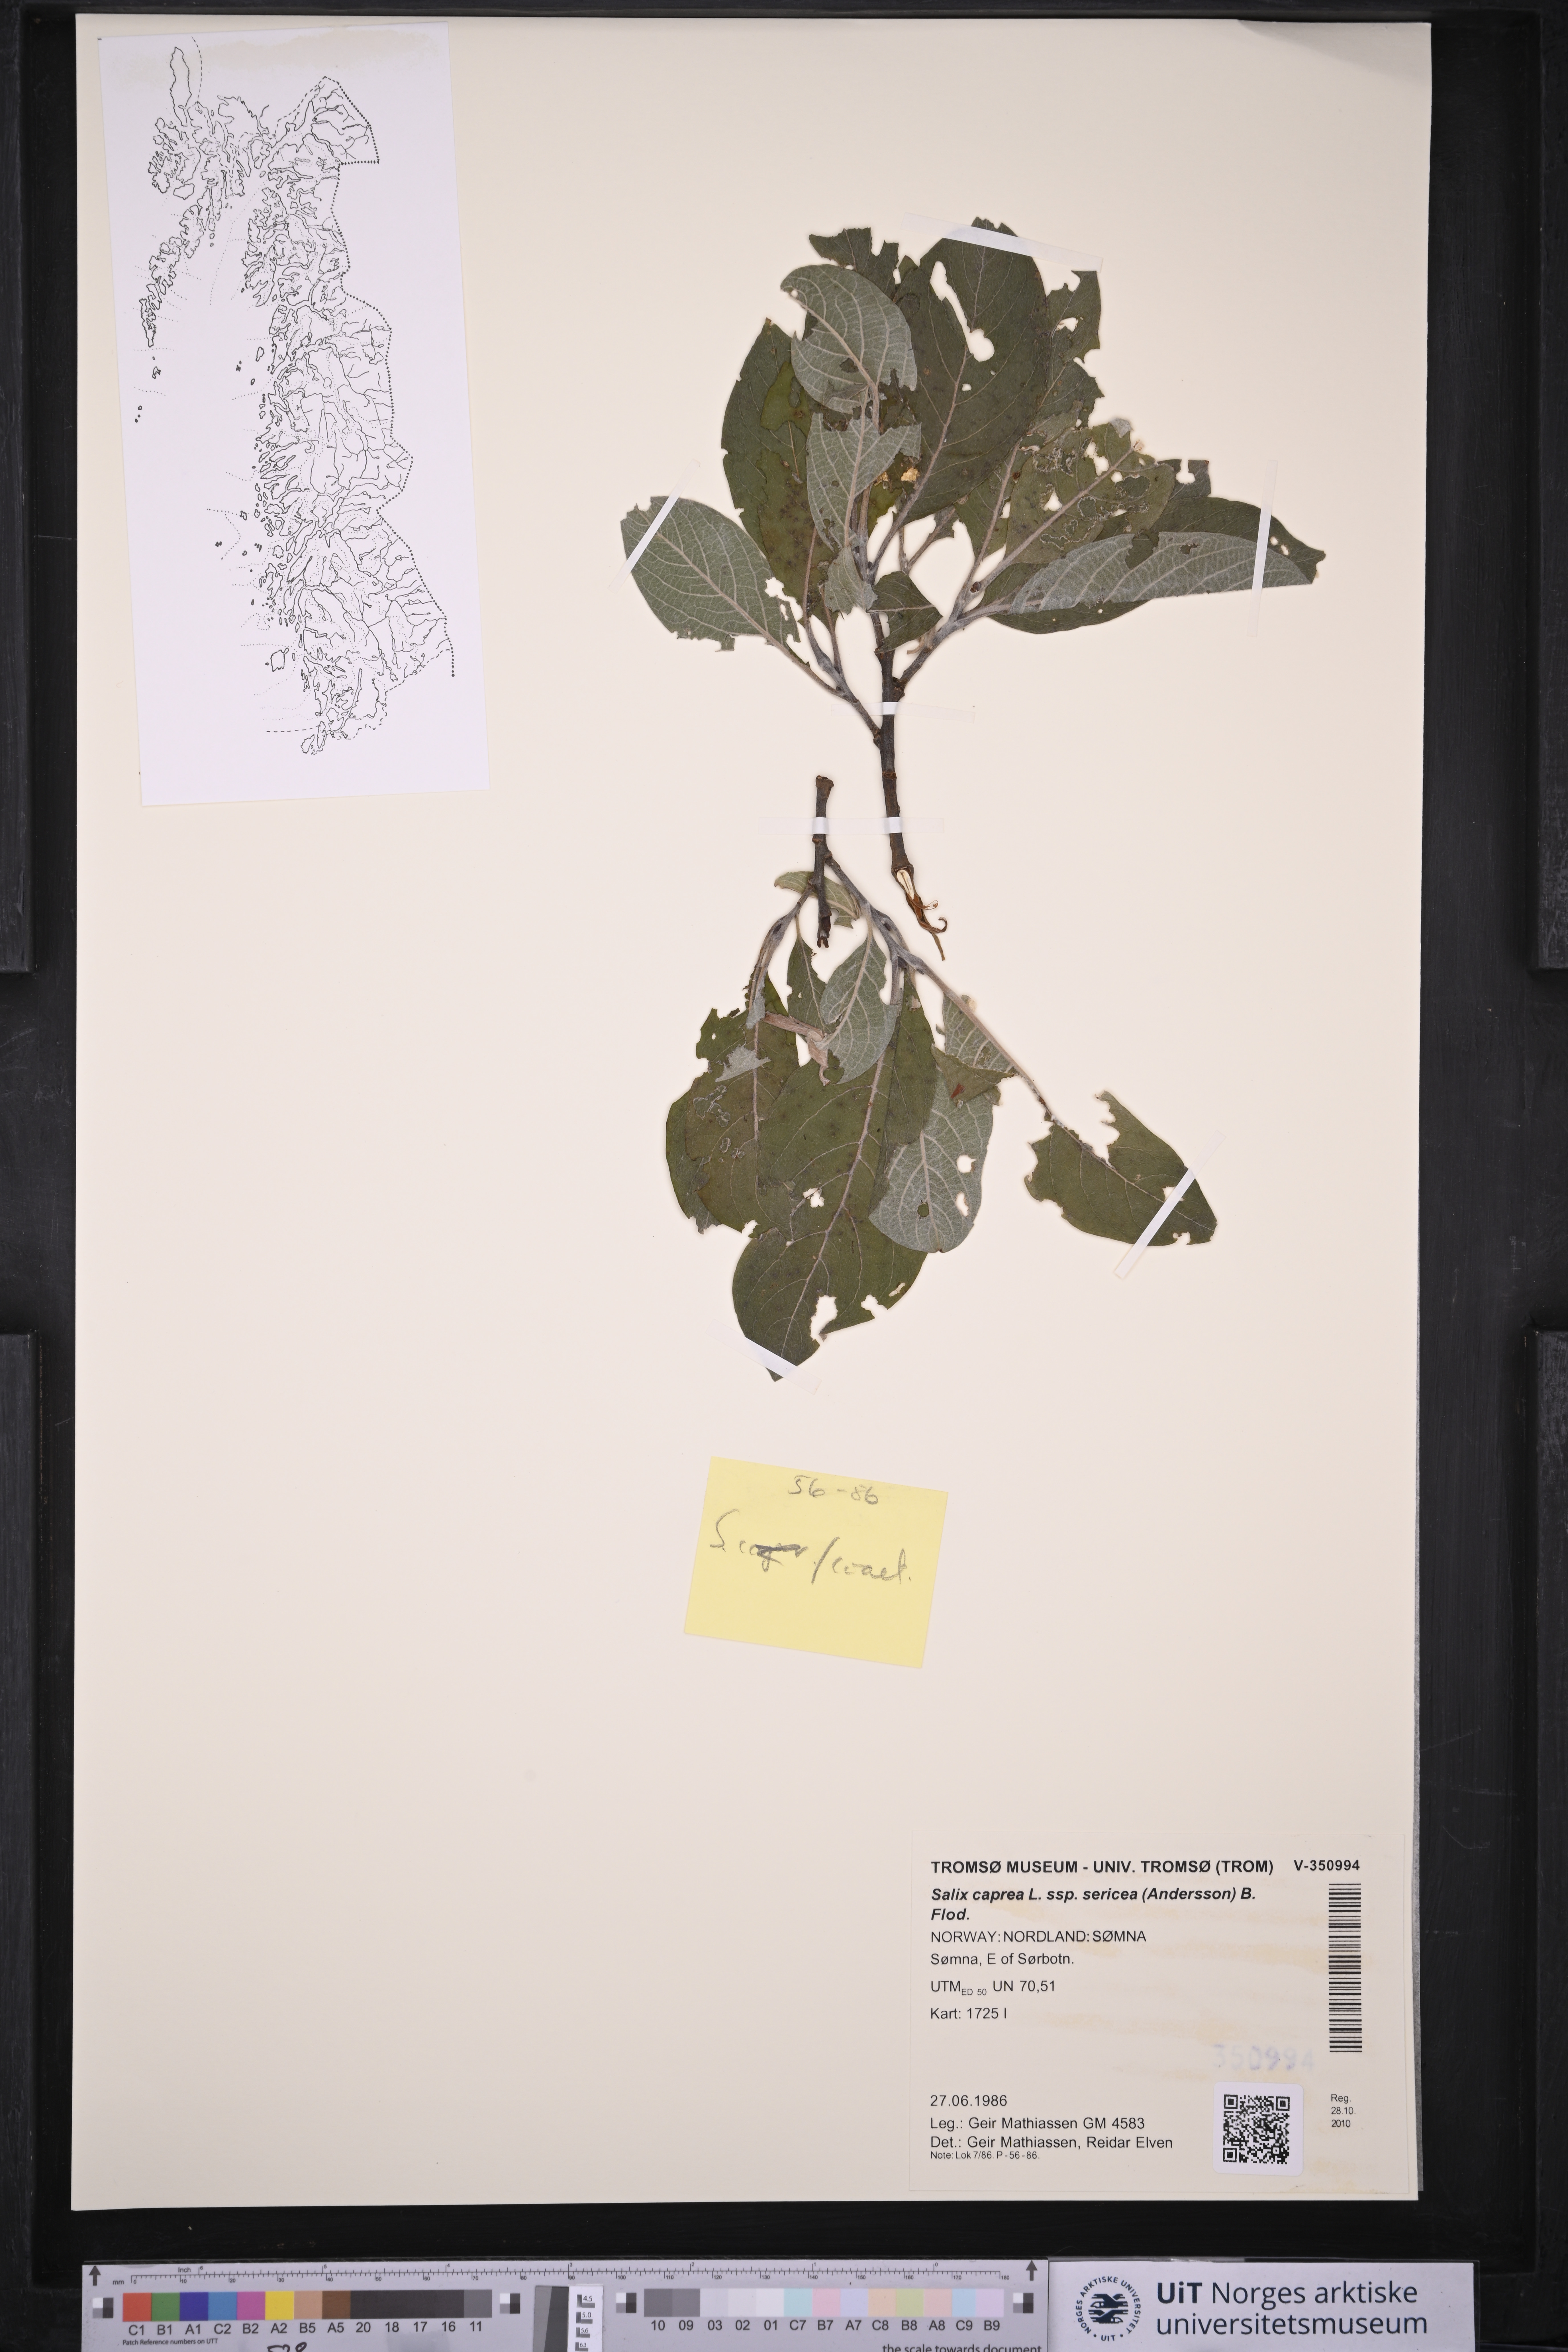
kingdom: Plantae
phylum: Tracheophyta
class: Magnoliopsida
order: Malpighiales
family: Salicaceae
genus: Salix
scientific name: Salix caprea
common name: Goat willow
